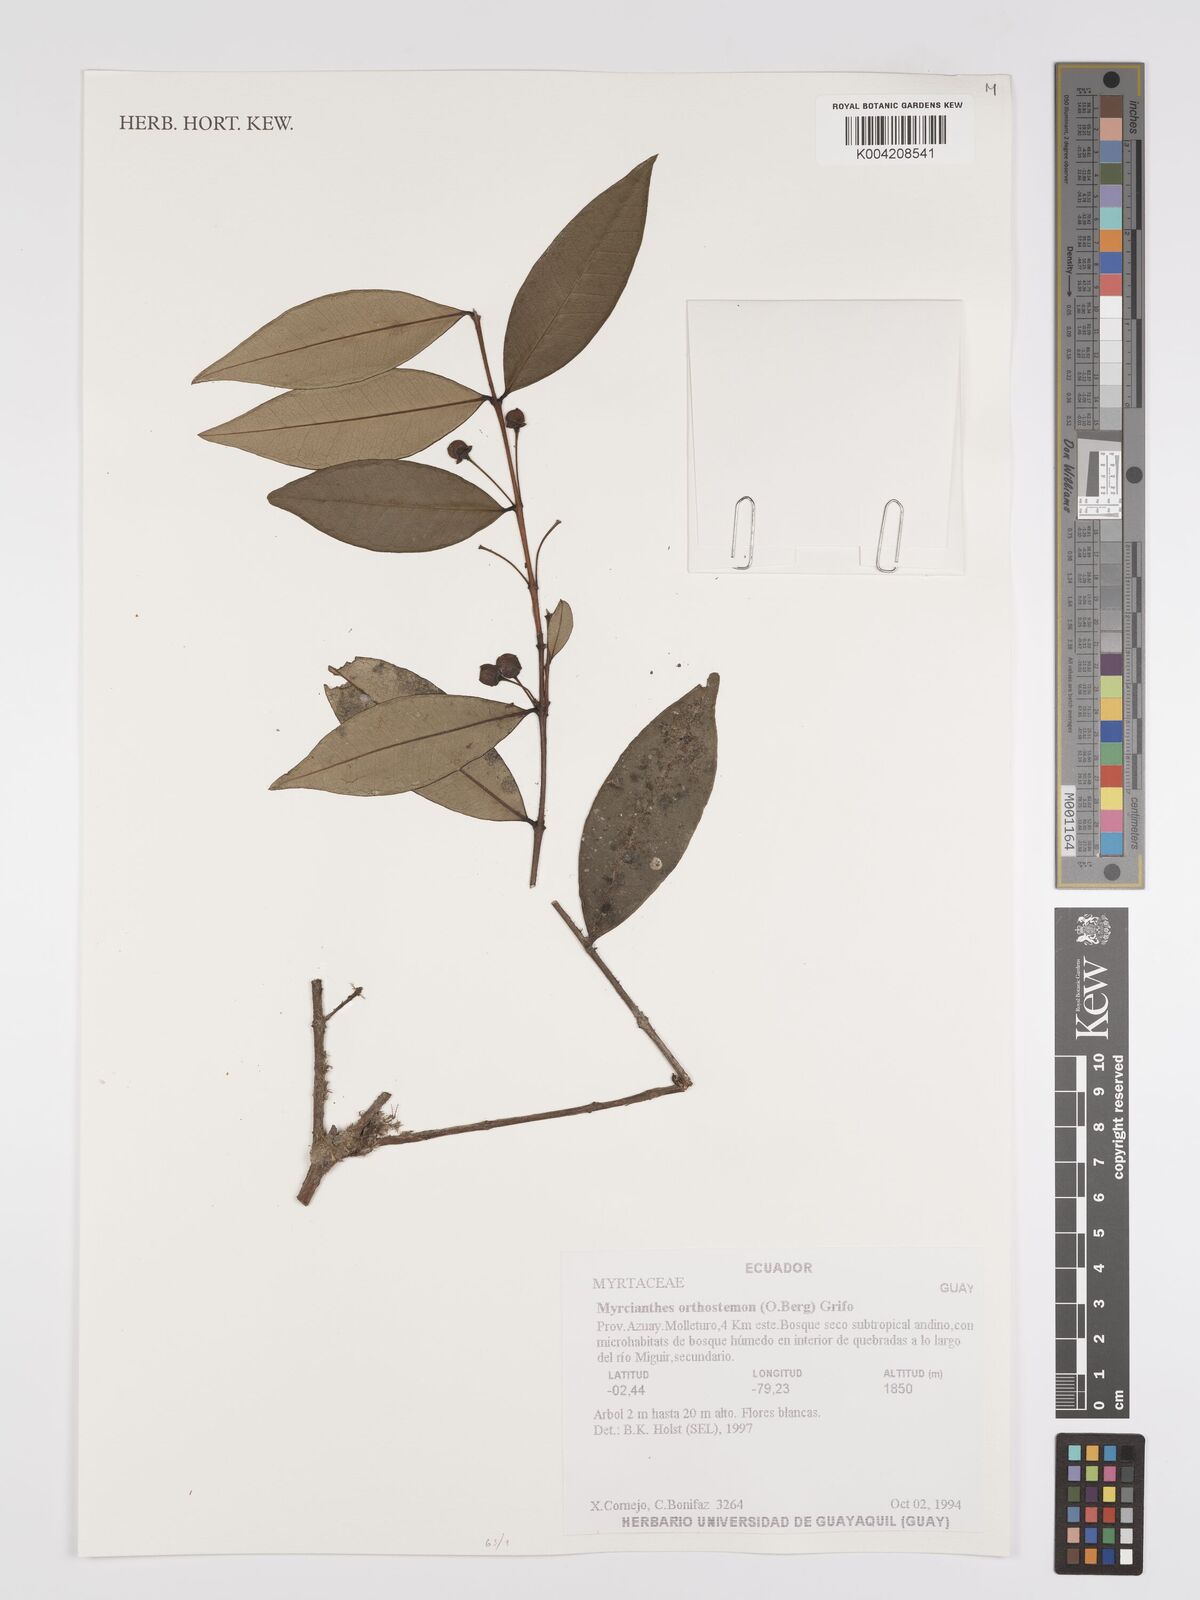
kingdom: Plantae
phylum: Tracheophyta
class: Magnoliopsida
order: Myrtales
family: Myrtaceae
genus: Myrcianthes
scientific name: Myrcianthes orthostemon
